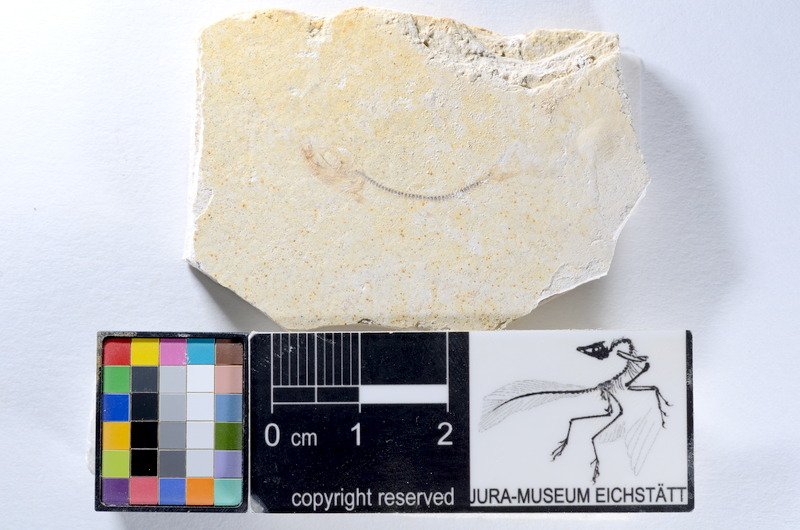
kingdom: Animalia
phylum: Chordata
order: Salmoniformes
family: Orthogonikleithridae
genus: Orthogonikleithrus
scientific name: Orthogonikleithrus hoelli
